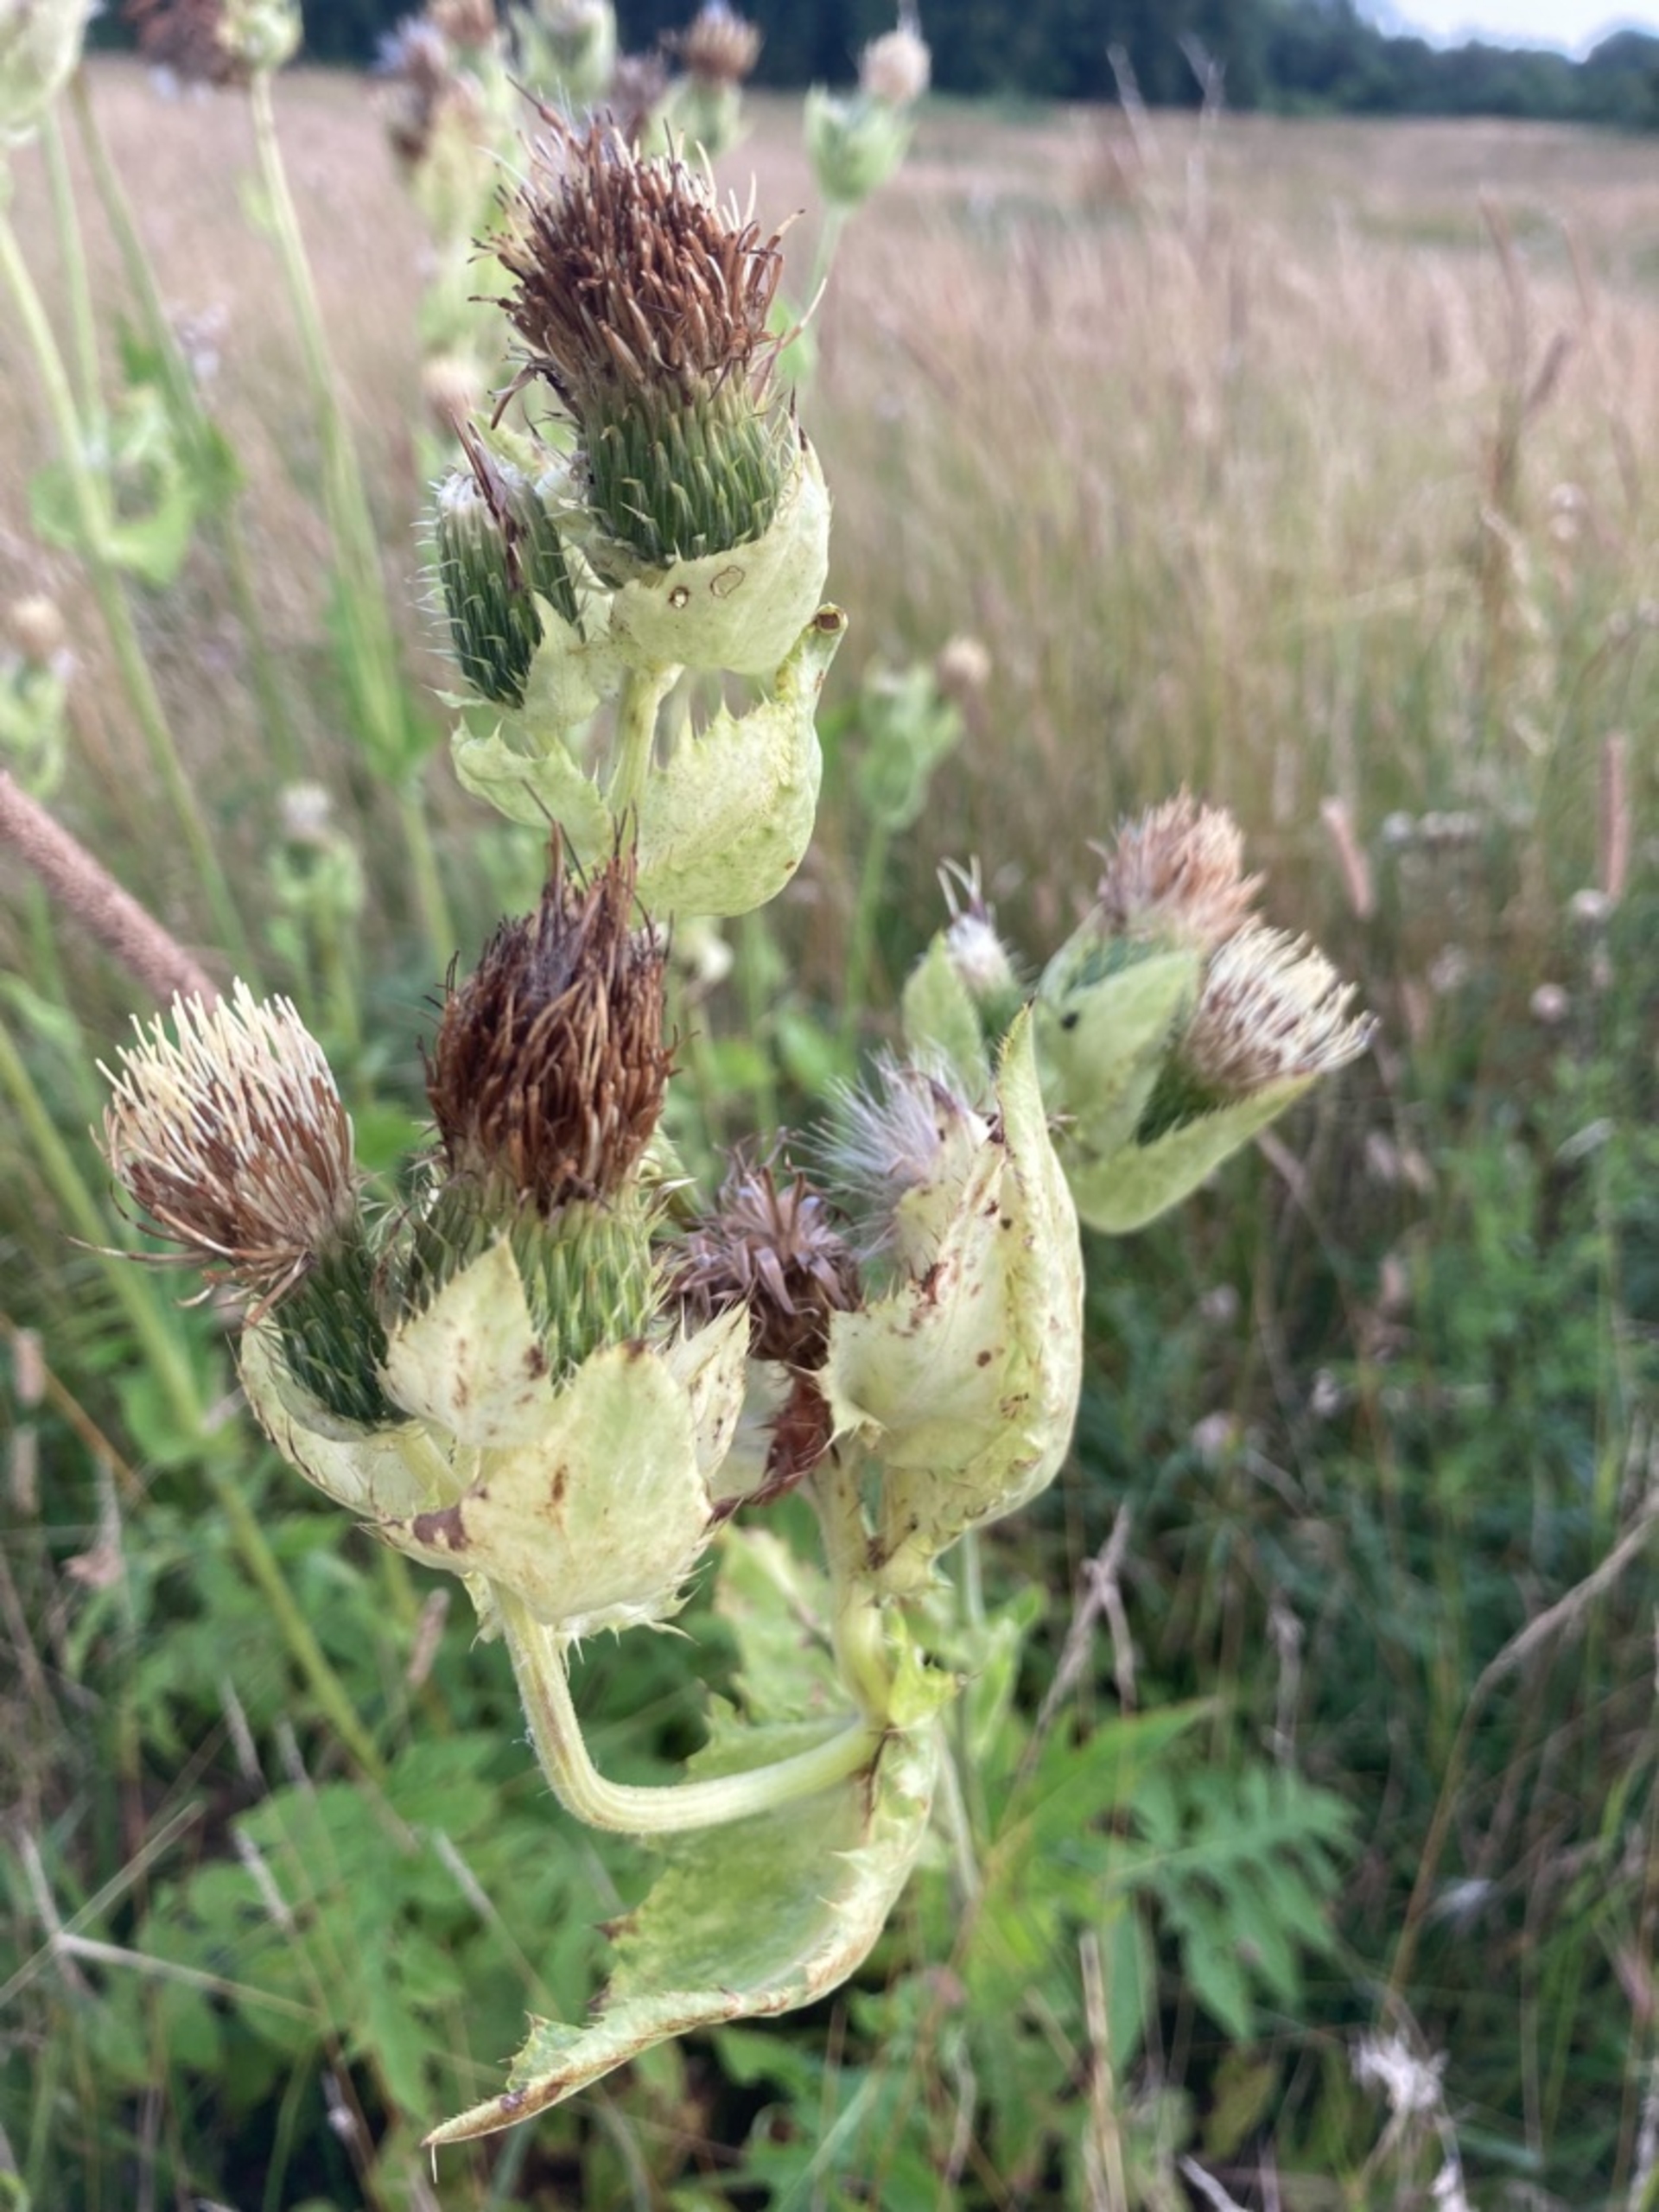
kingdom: Plantae
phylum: Tracheophyta
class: Magnoliopsida
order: Asterales
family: Asteraceae
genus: Cirsium
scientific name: Cirsium oleraceum
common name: Kål-tidsel
